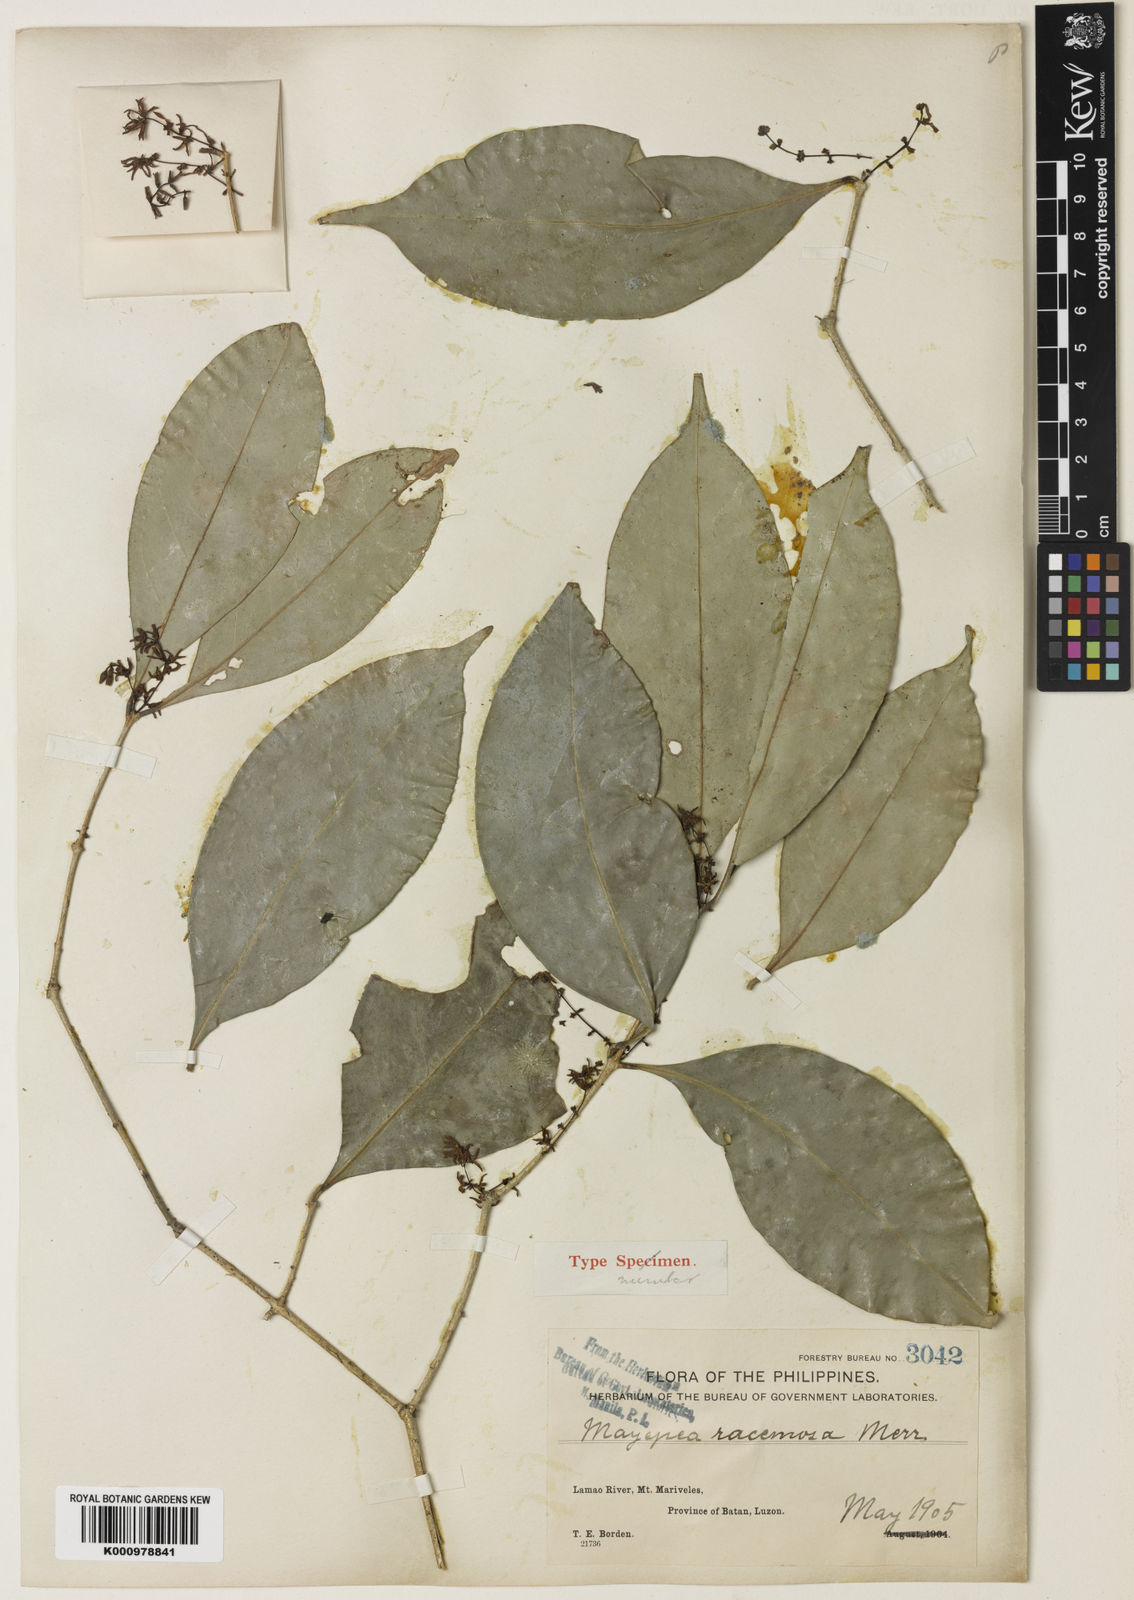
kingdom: Plantae
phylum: Tracheophyta
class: Magnoliopsida
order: Lamiales
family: Oleaceae
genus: Chionanthus
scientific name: Chionanthus
